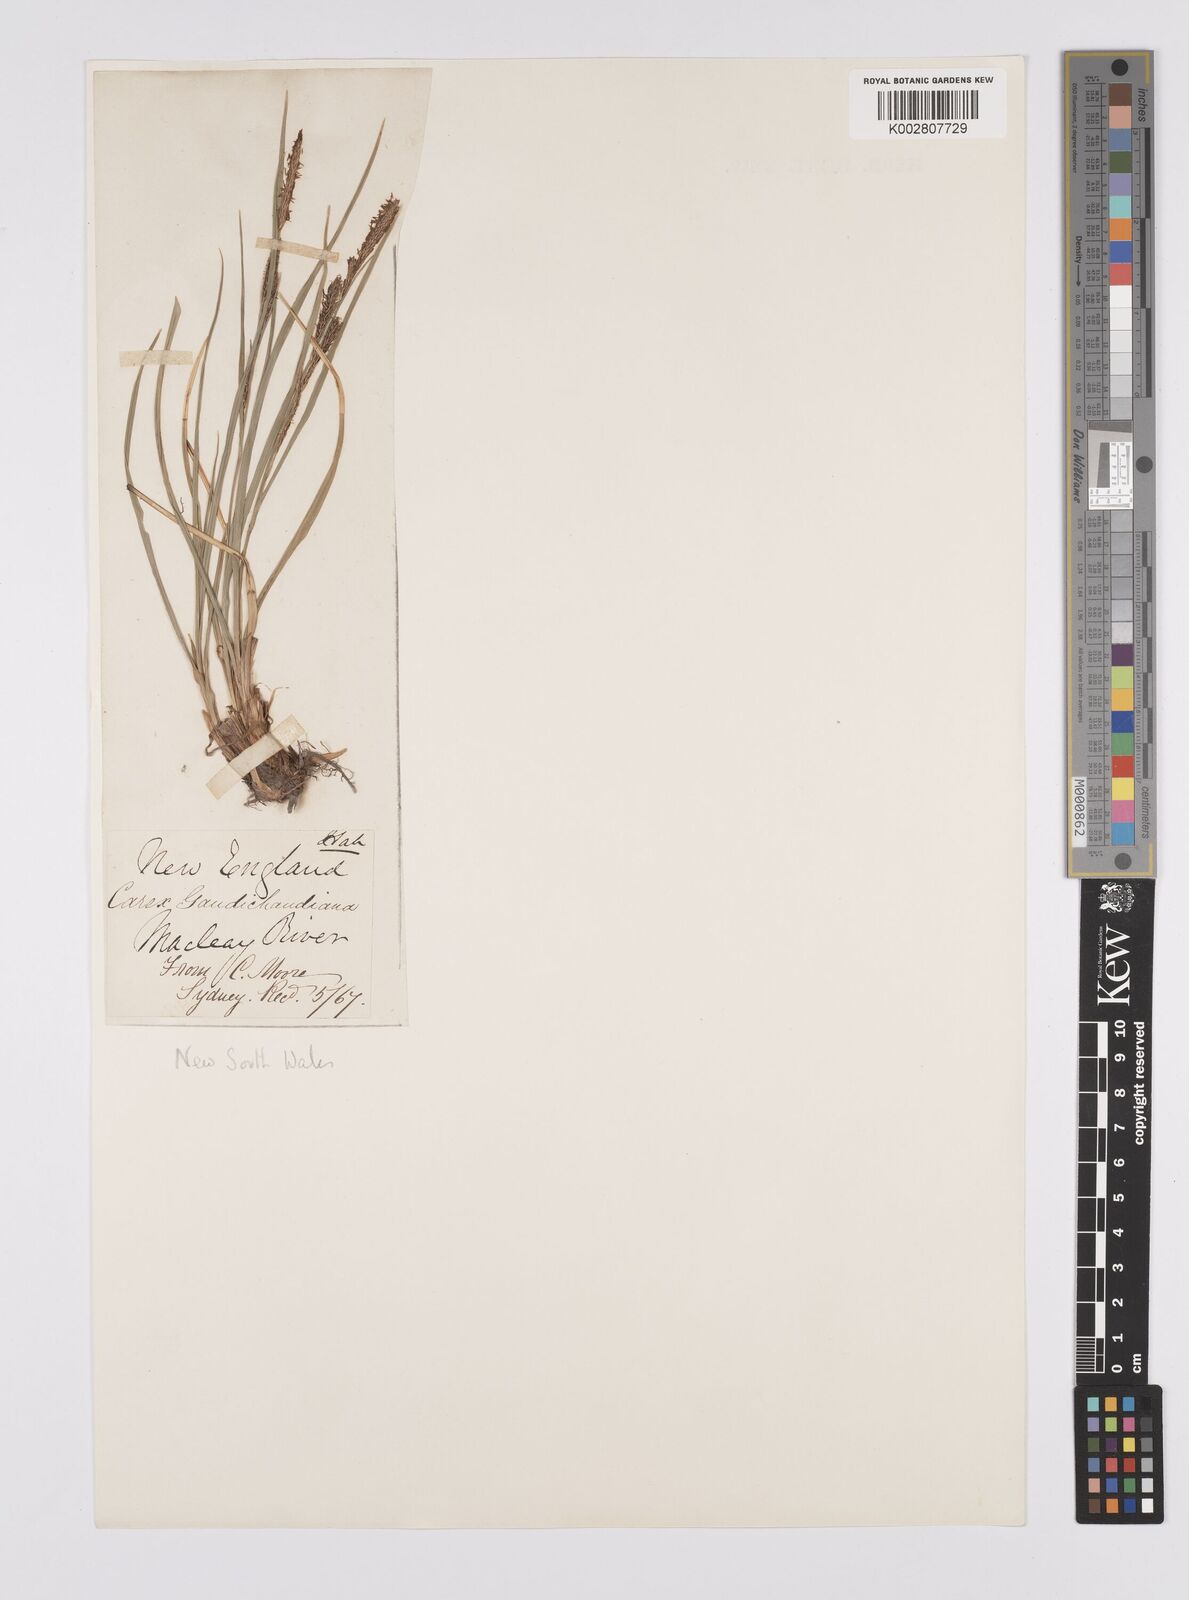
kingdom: Plantae
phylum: Tracheophyta
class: Liliopsida
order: Poales
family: Cyperaceae
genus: Carex
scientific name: Carex gaudichaudiana
